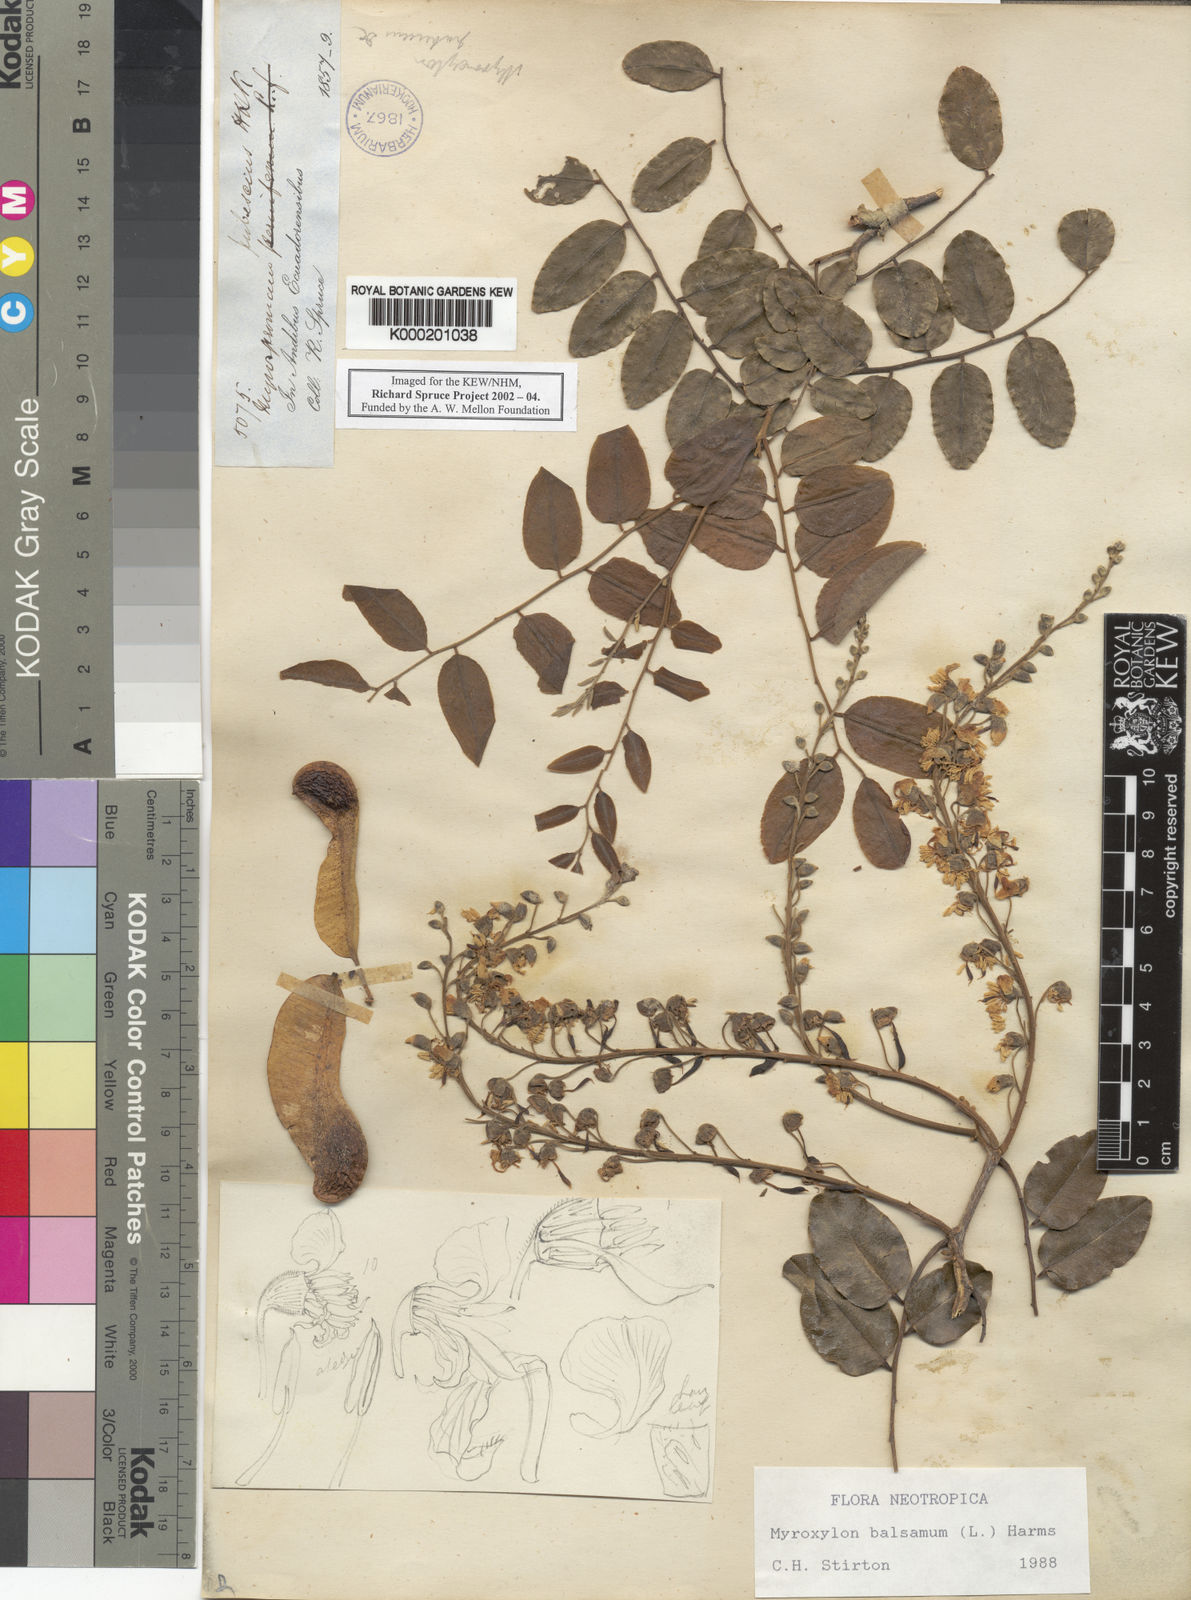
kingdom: Plantae
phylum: Tracheophyta
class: Magnoliopsida
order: Fabales
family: Fabaceae
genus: Myroxylon
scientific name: Myroxylon balsamum
